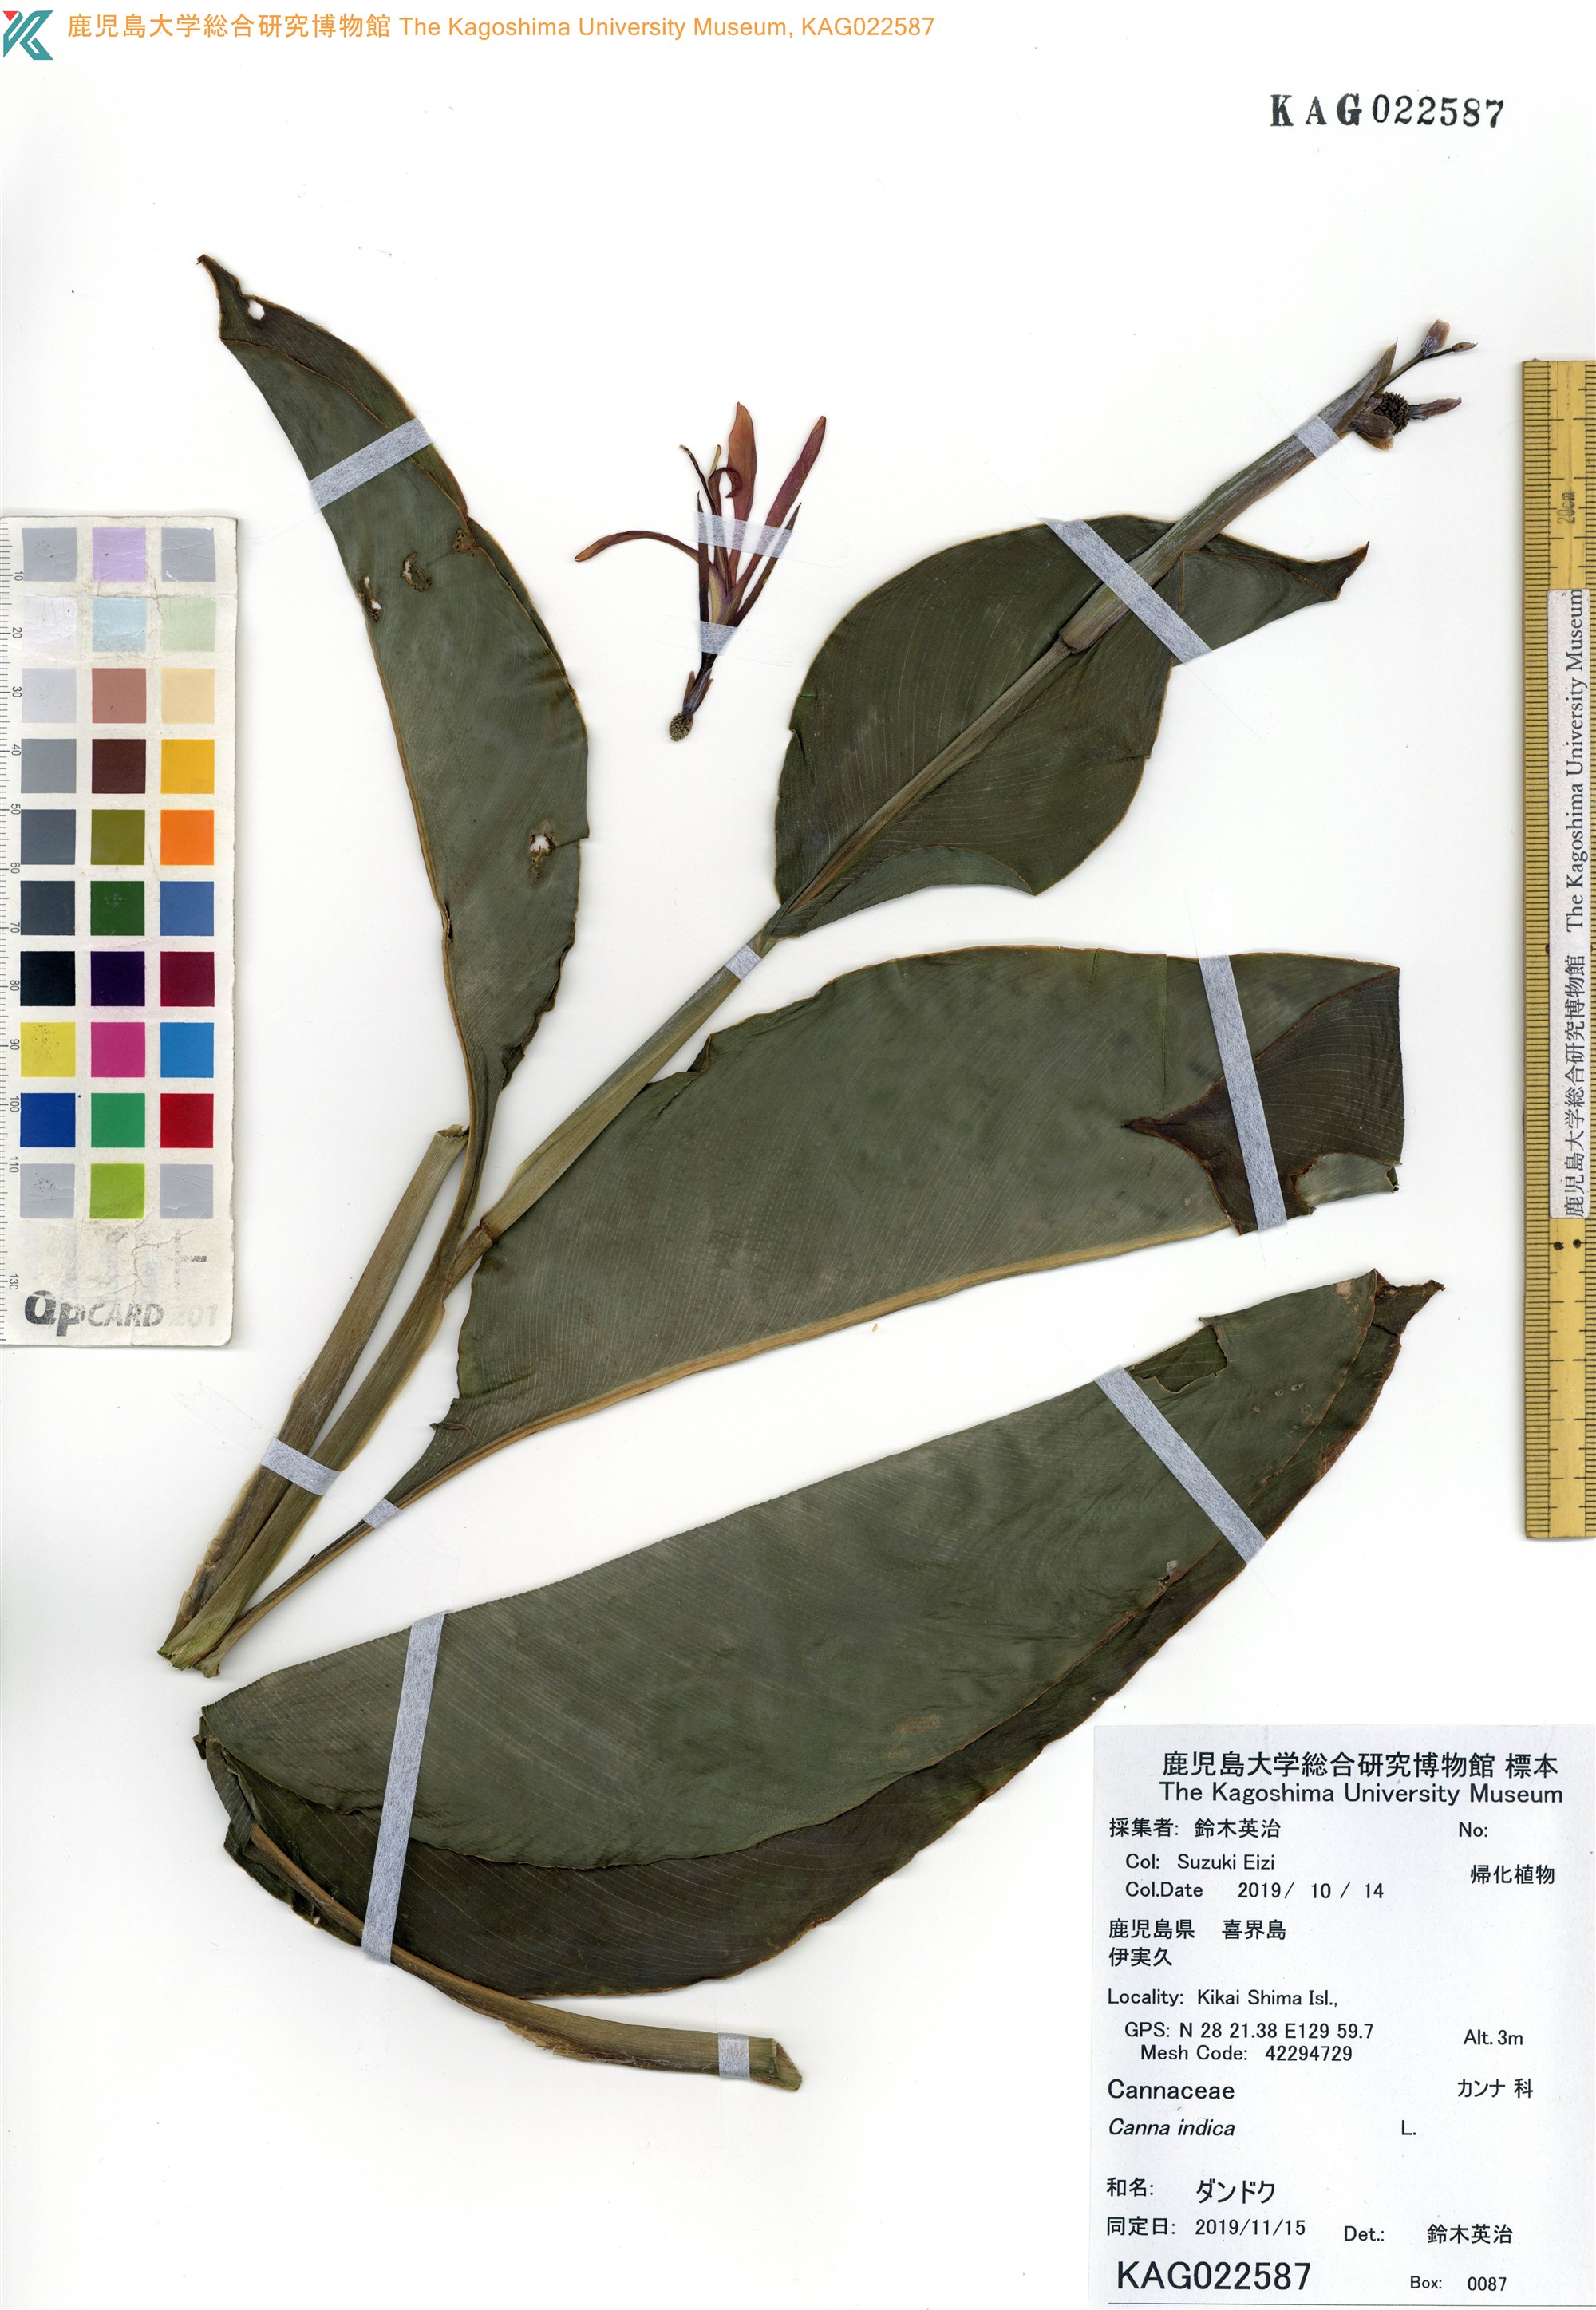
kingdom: Plantae
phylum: Tracheophyta
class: Liliopsida
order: Zingiberales
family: Cannaceae
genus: Canna
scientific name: Canna indica
